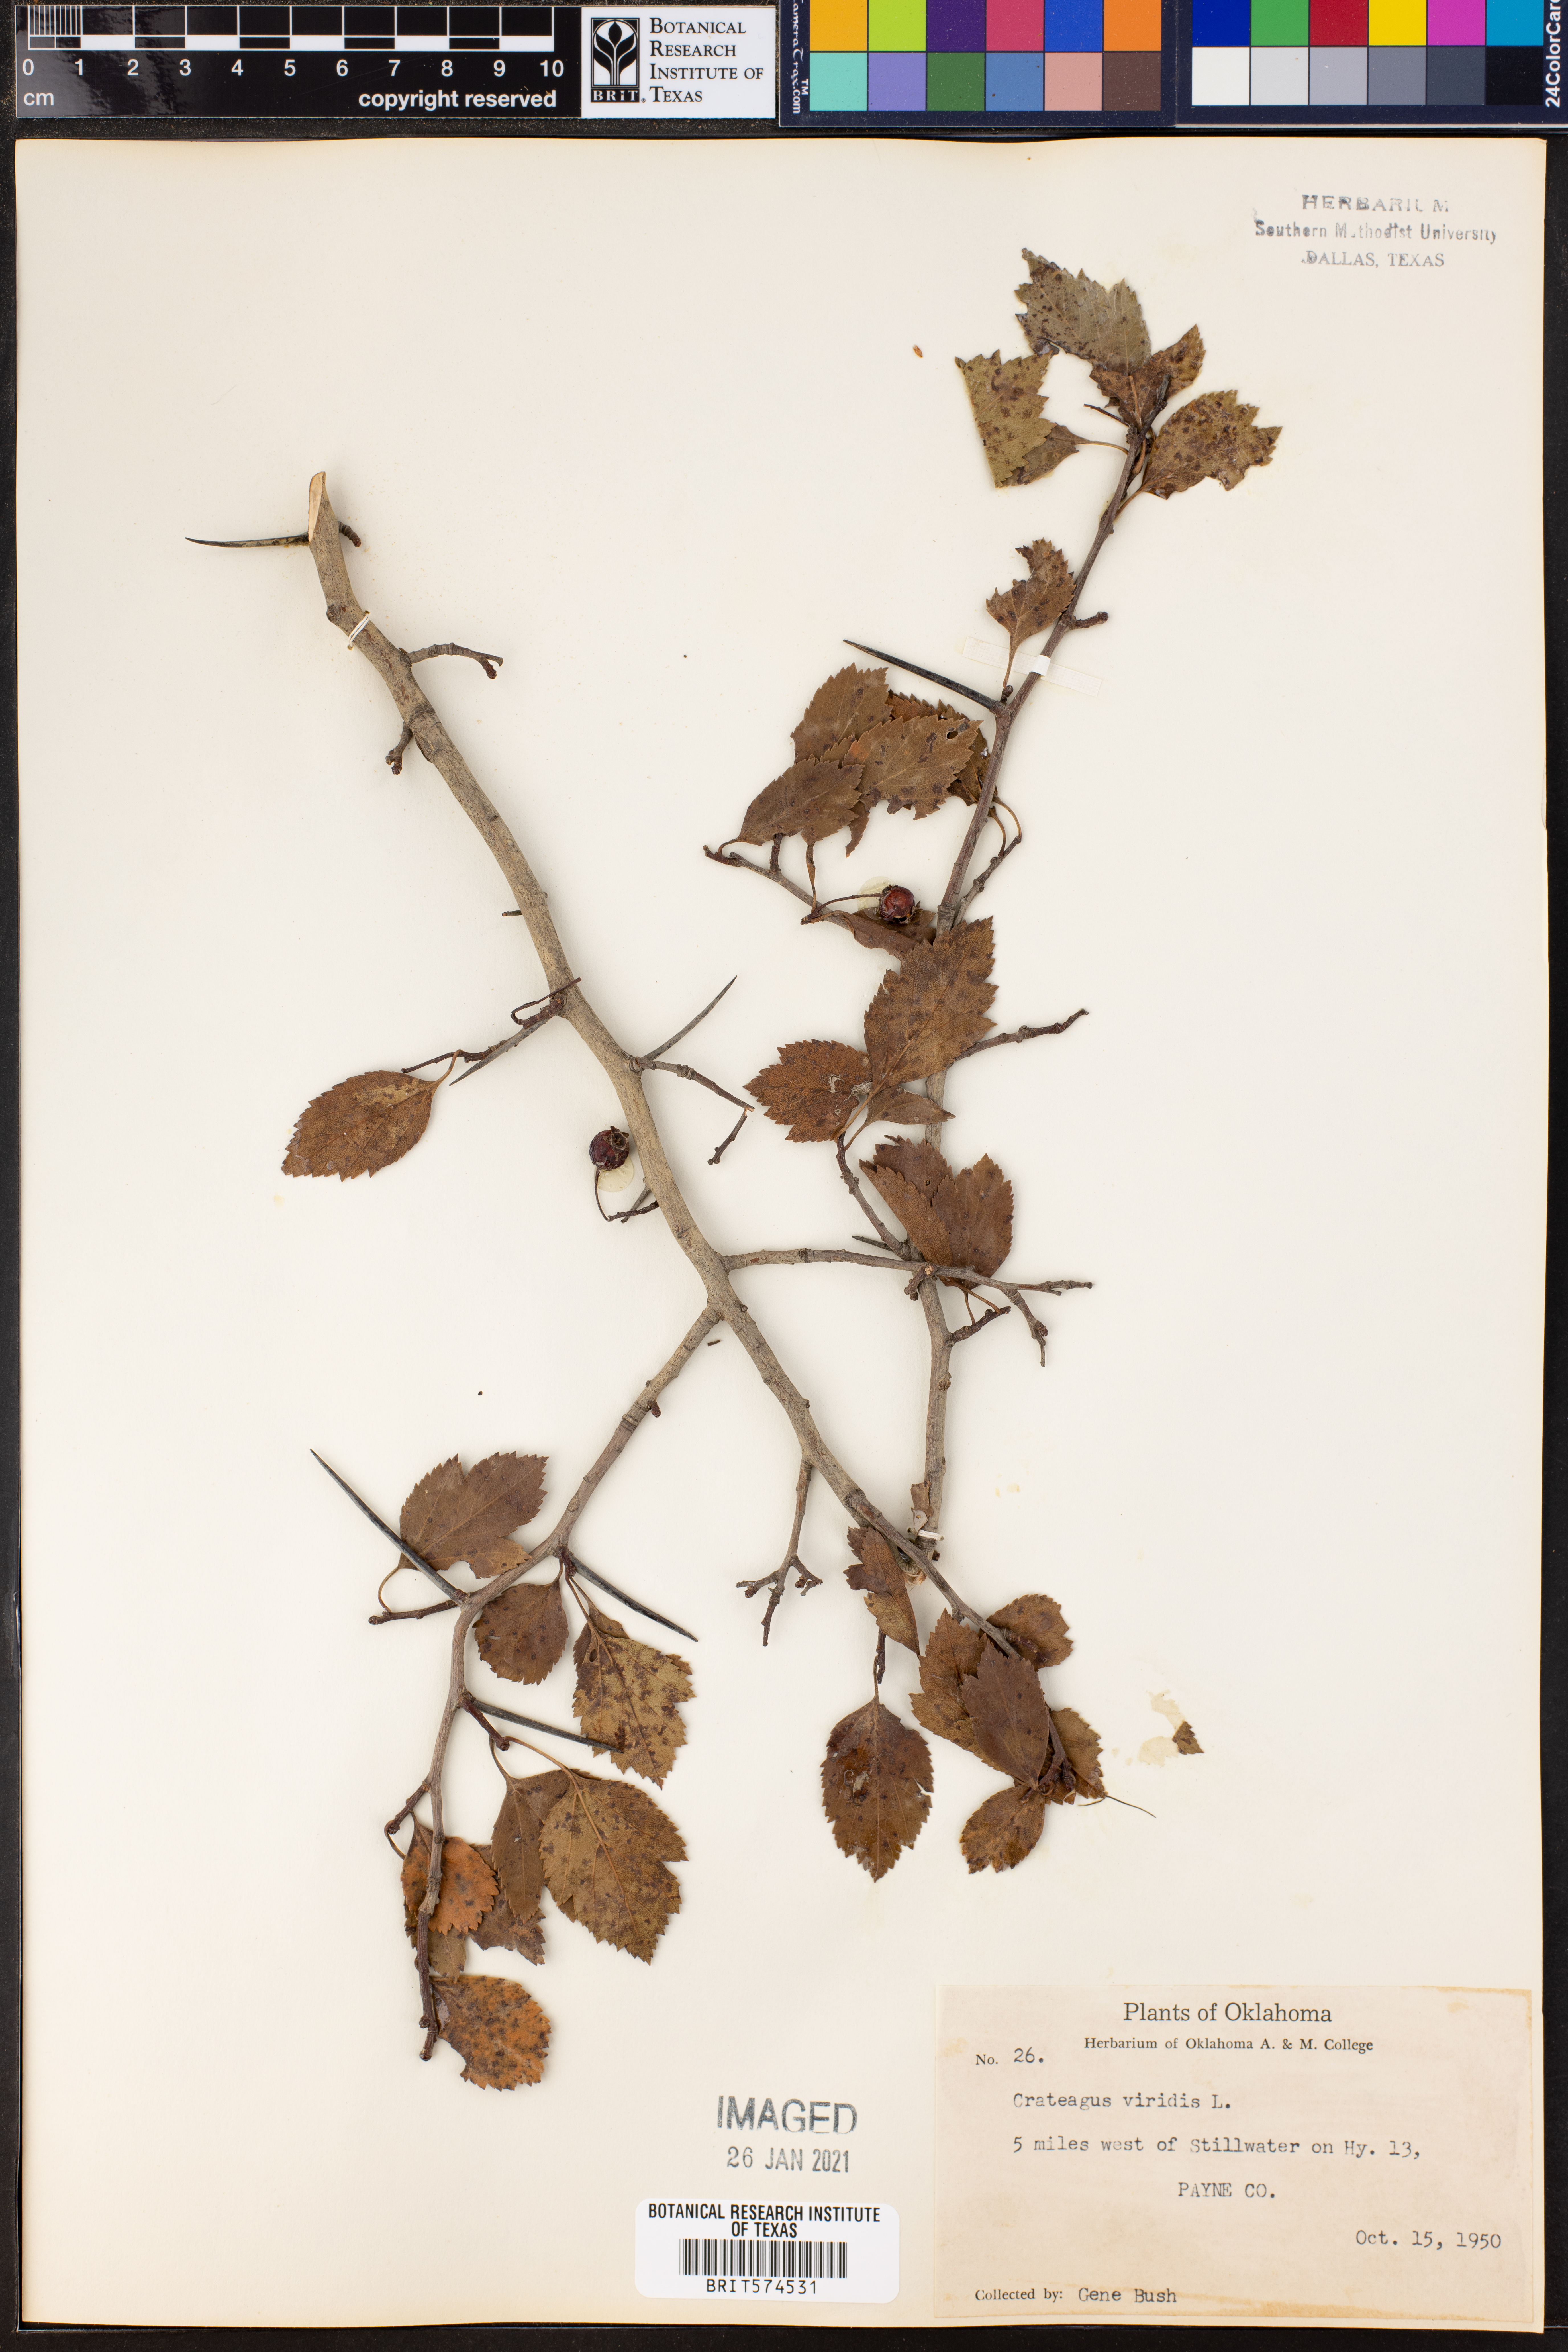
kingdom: Plantae
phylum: Tracheophyta
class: Magnoliopsida
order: Rosales
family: Rosaceae
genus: Crataegus
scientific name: Crataegus viridis
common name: Southernthorn
